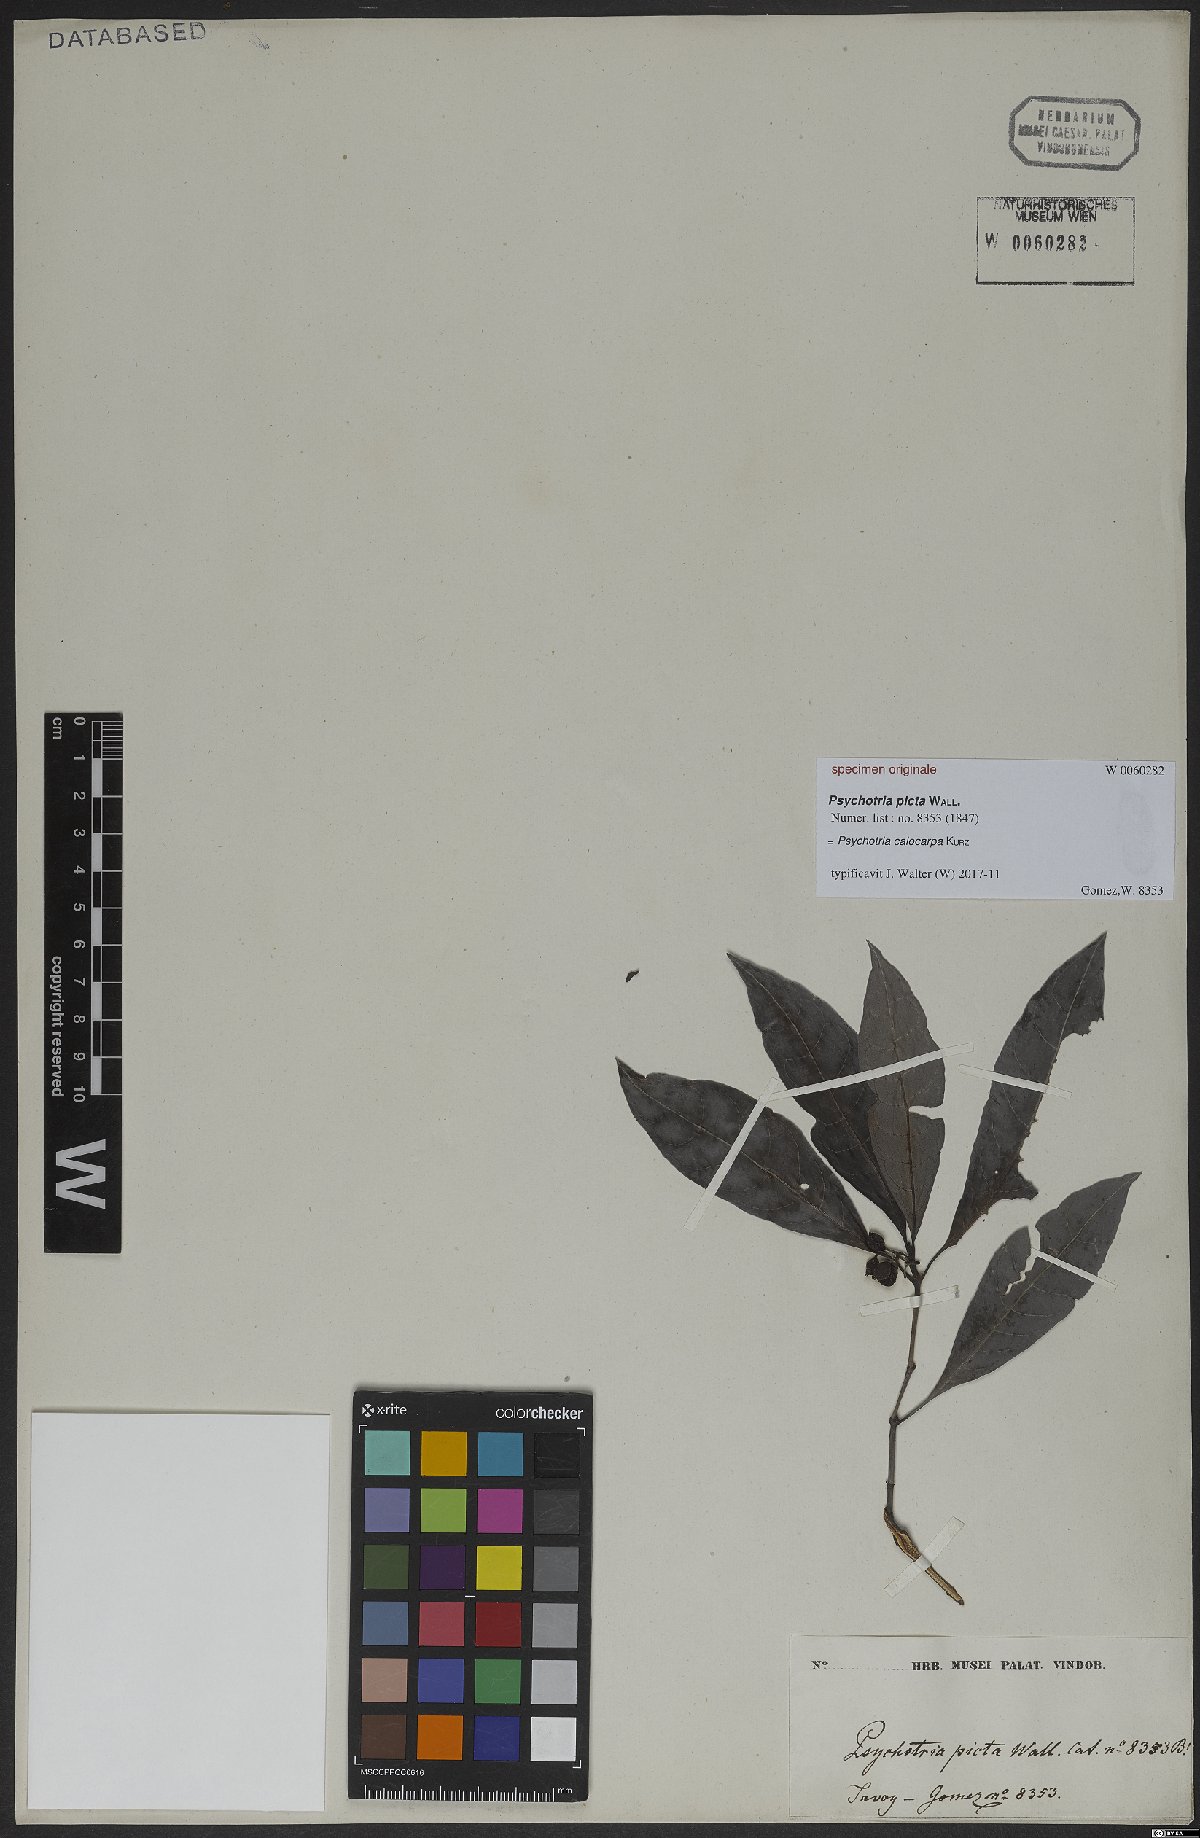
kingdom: Plantae
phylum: Tracheophyta
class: Magnoliopsida
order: Gentianales
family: Rubiaceae
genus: Psychotria
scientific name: Psychotria calocarpa
